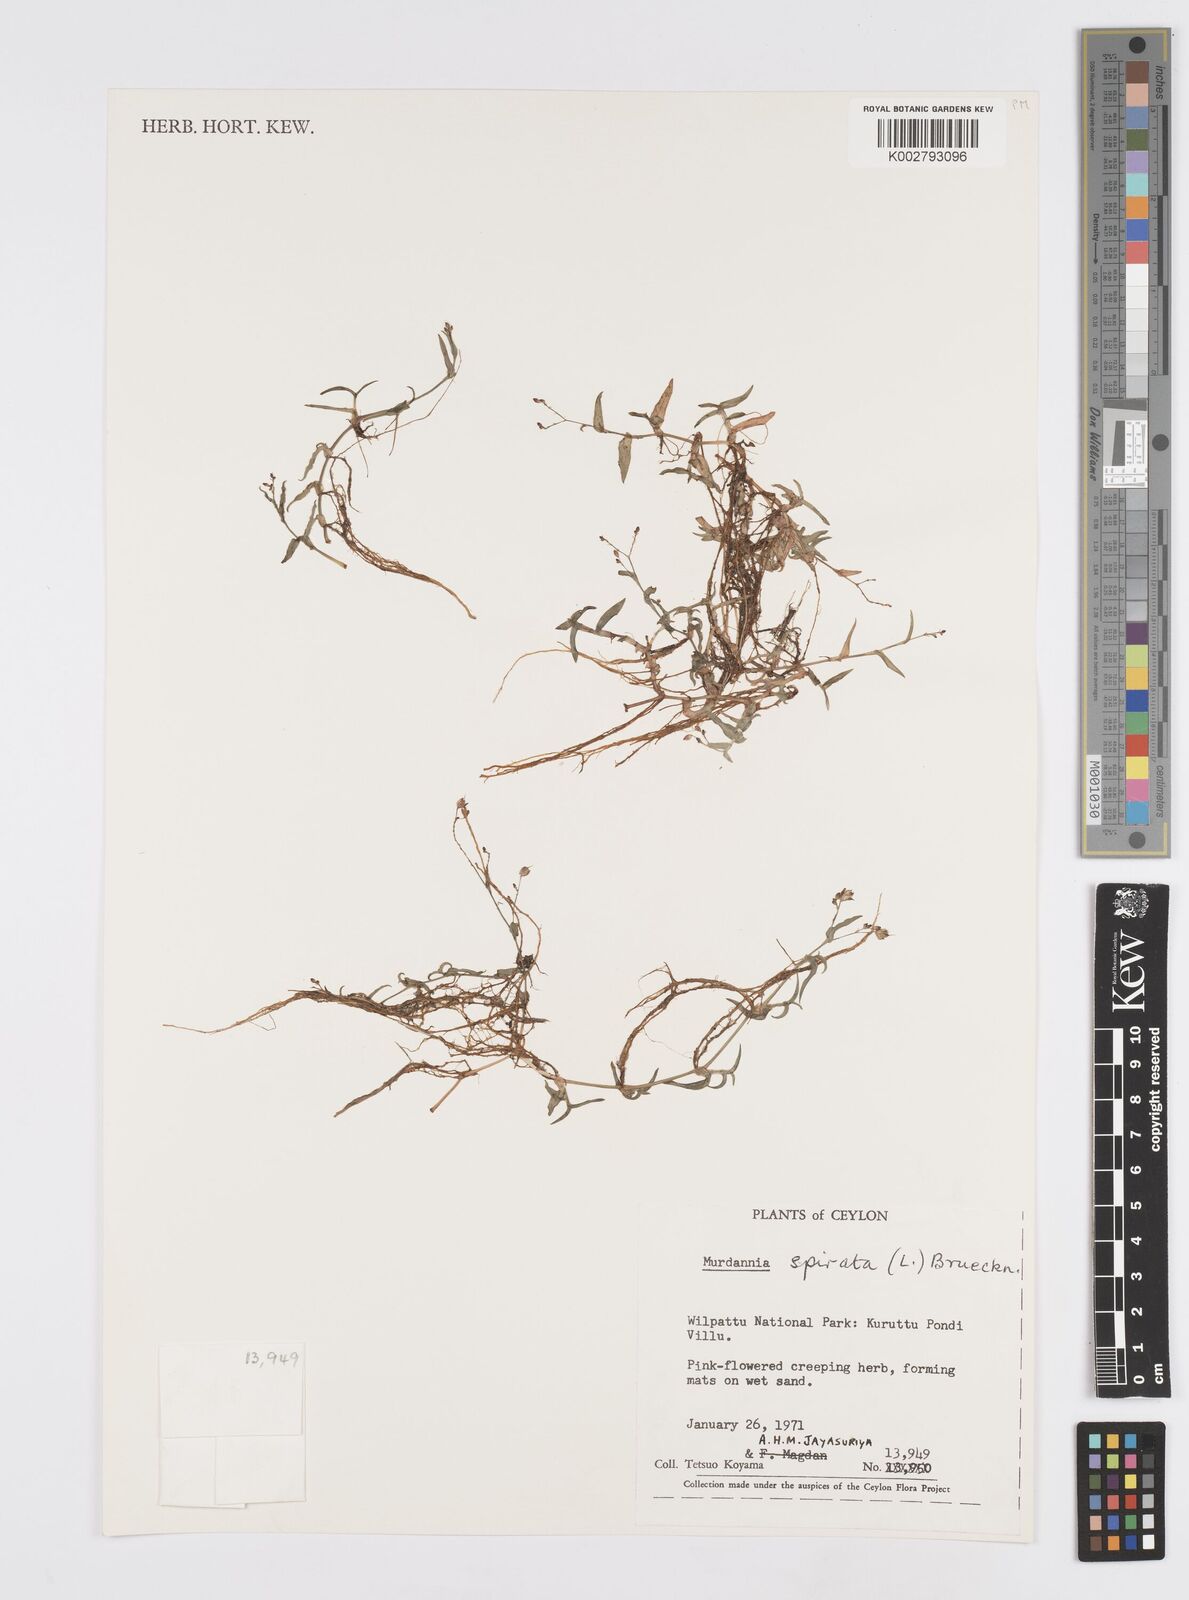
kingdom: Plantae
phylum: Tracheophyta
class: Liliopsida
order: Commelinales
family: Commelinaceae
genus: Murdannia
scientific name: Murdannia spirata
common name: Asiatic dewflower
